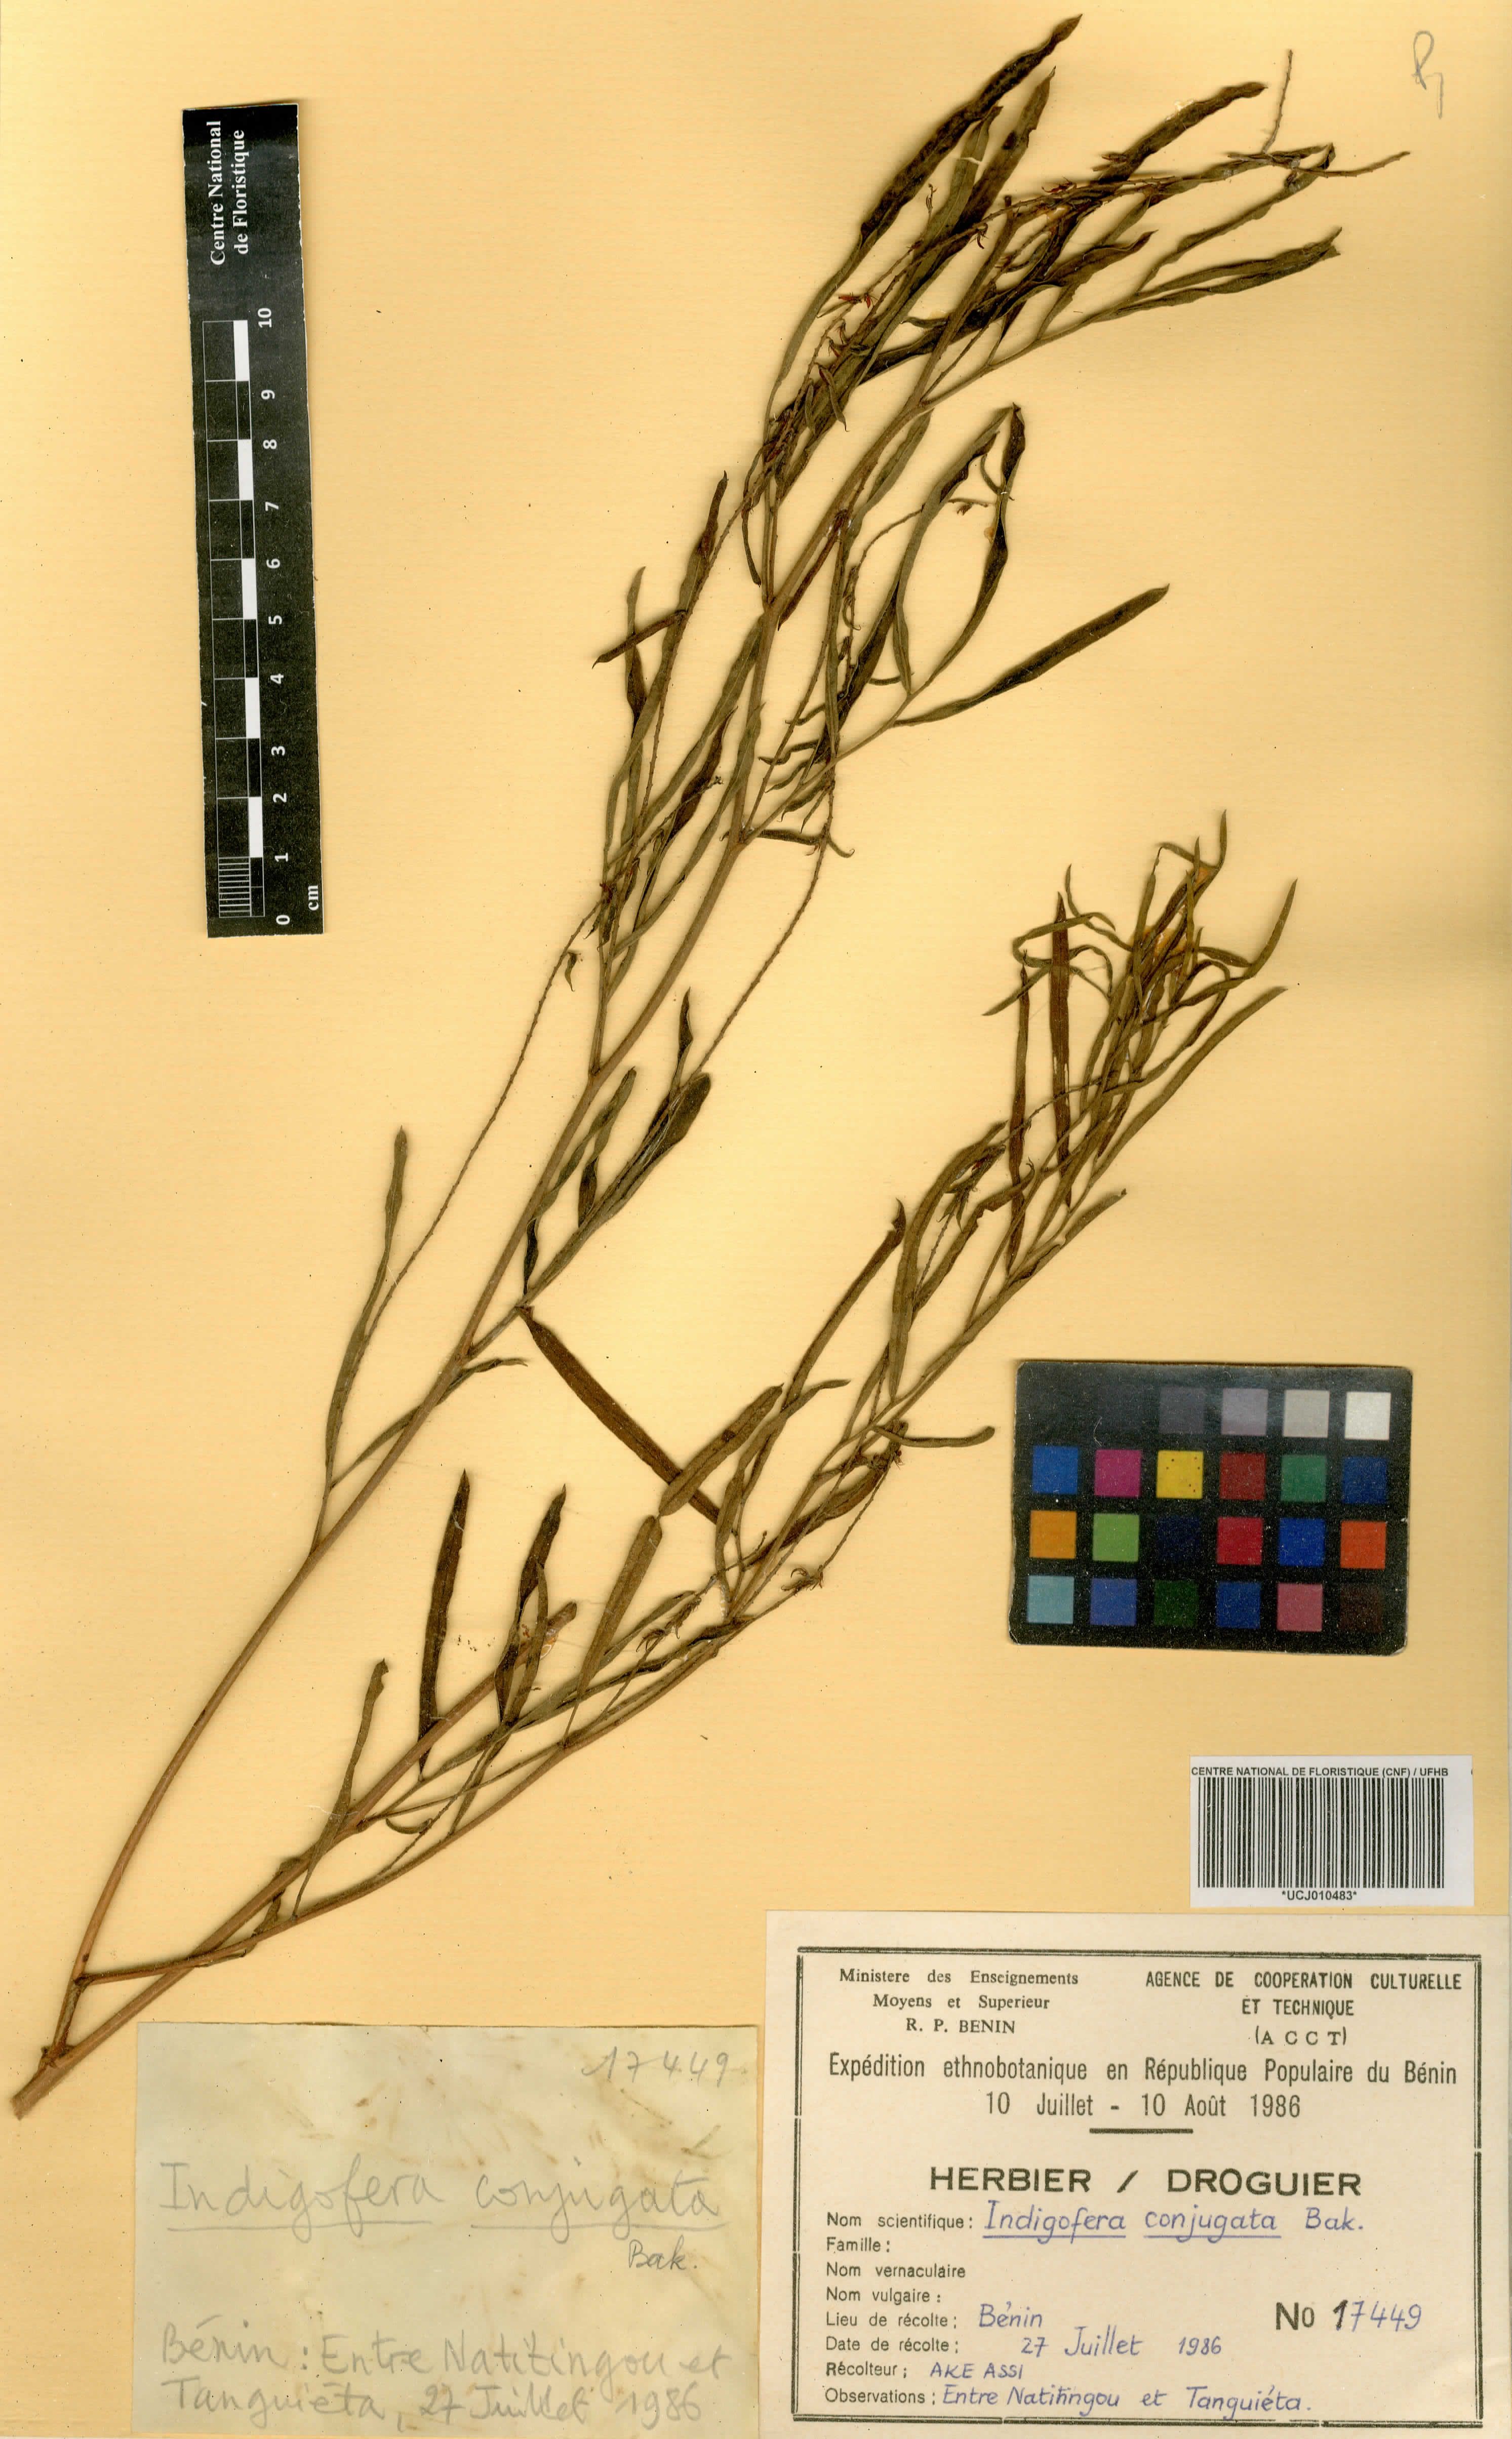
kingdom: Plantae
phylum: Tracheophyta
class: Magnoliopsida
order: Fabales
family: Fabaceae
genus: Indigofera
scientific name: Indigofera conjugata
